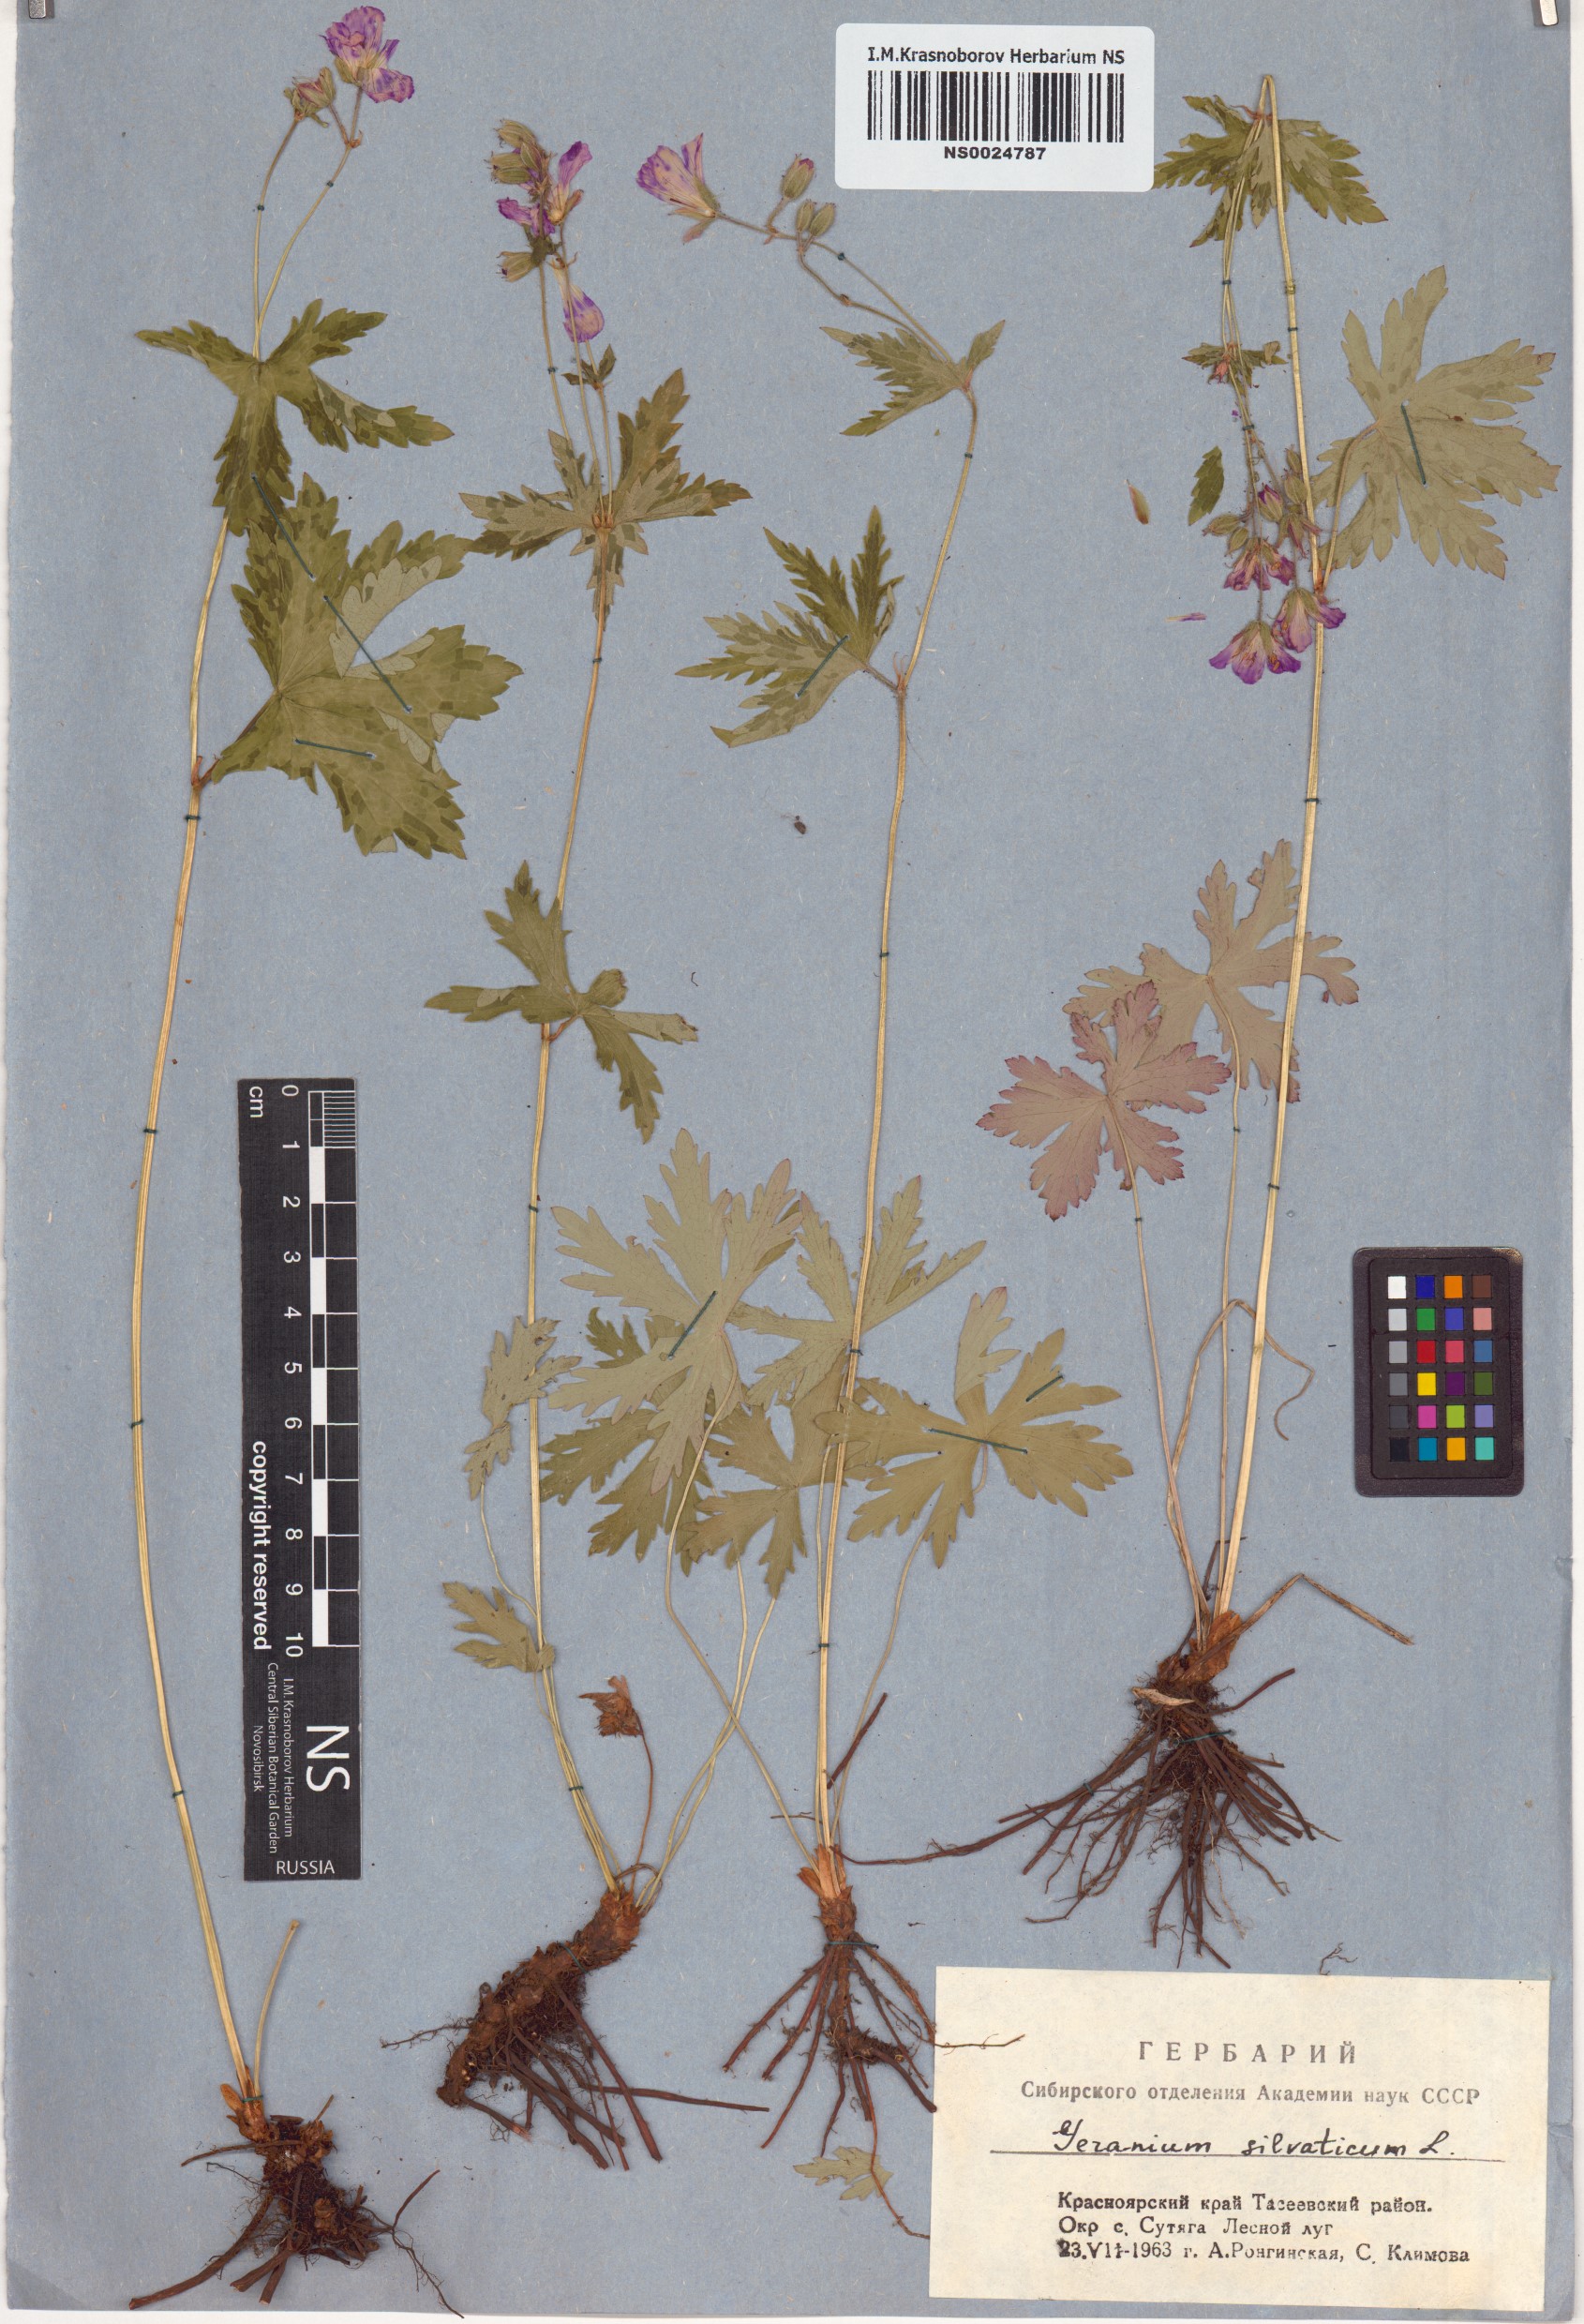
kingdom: Plantae
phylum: Tracheophyta
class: Magnoliopsida
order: Geraniales
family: Geraniaceae
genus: Geranium
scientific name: Geranium sylvaticum
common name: Wood crane's-bill
